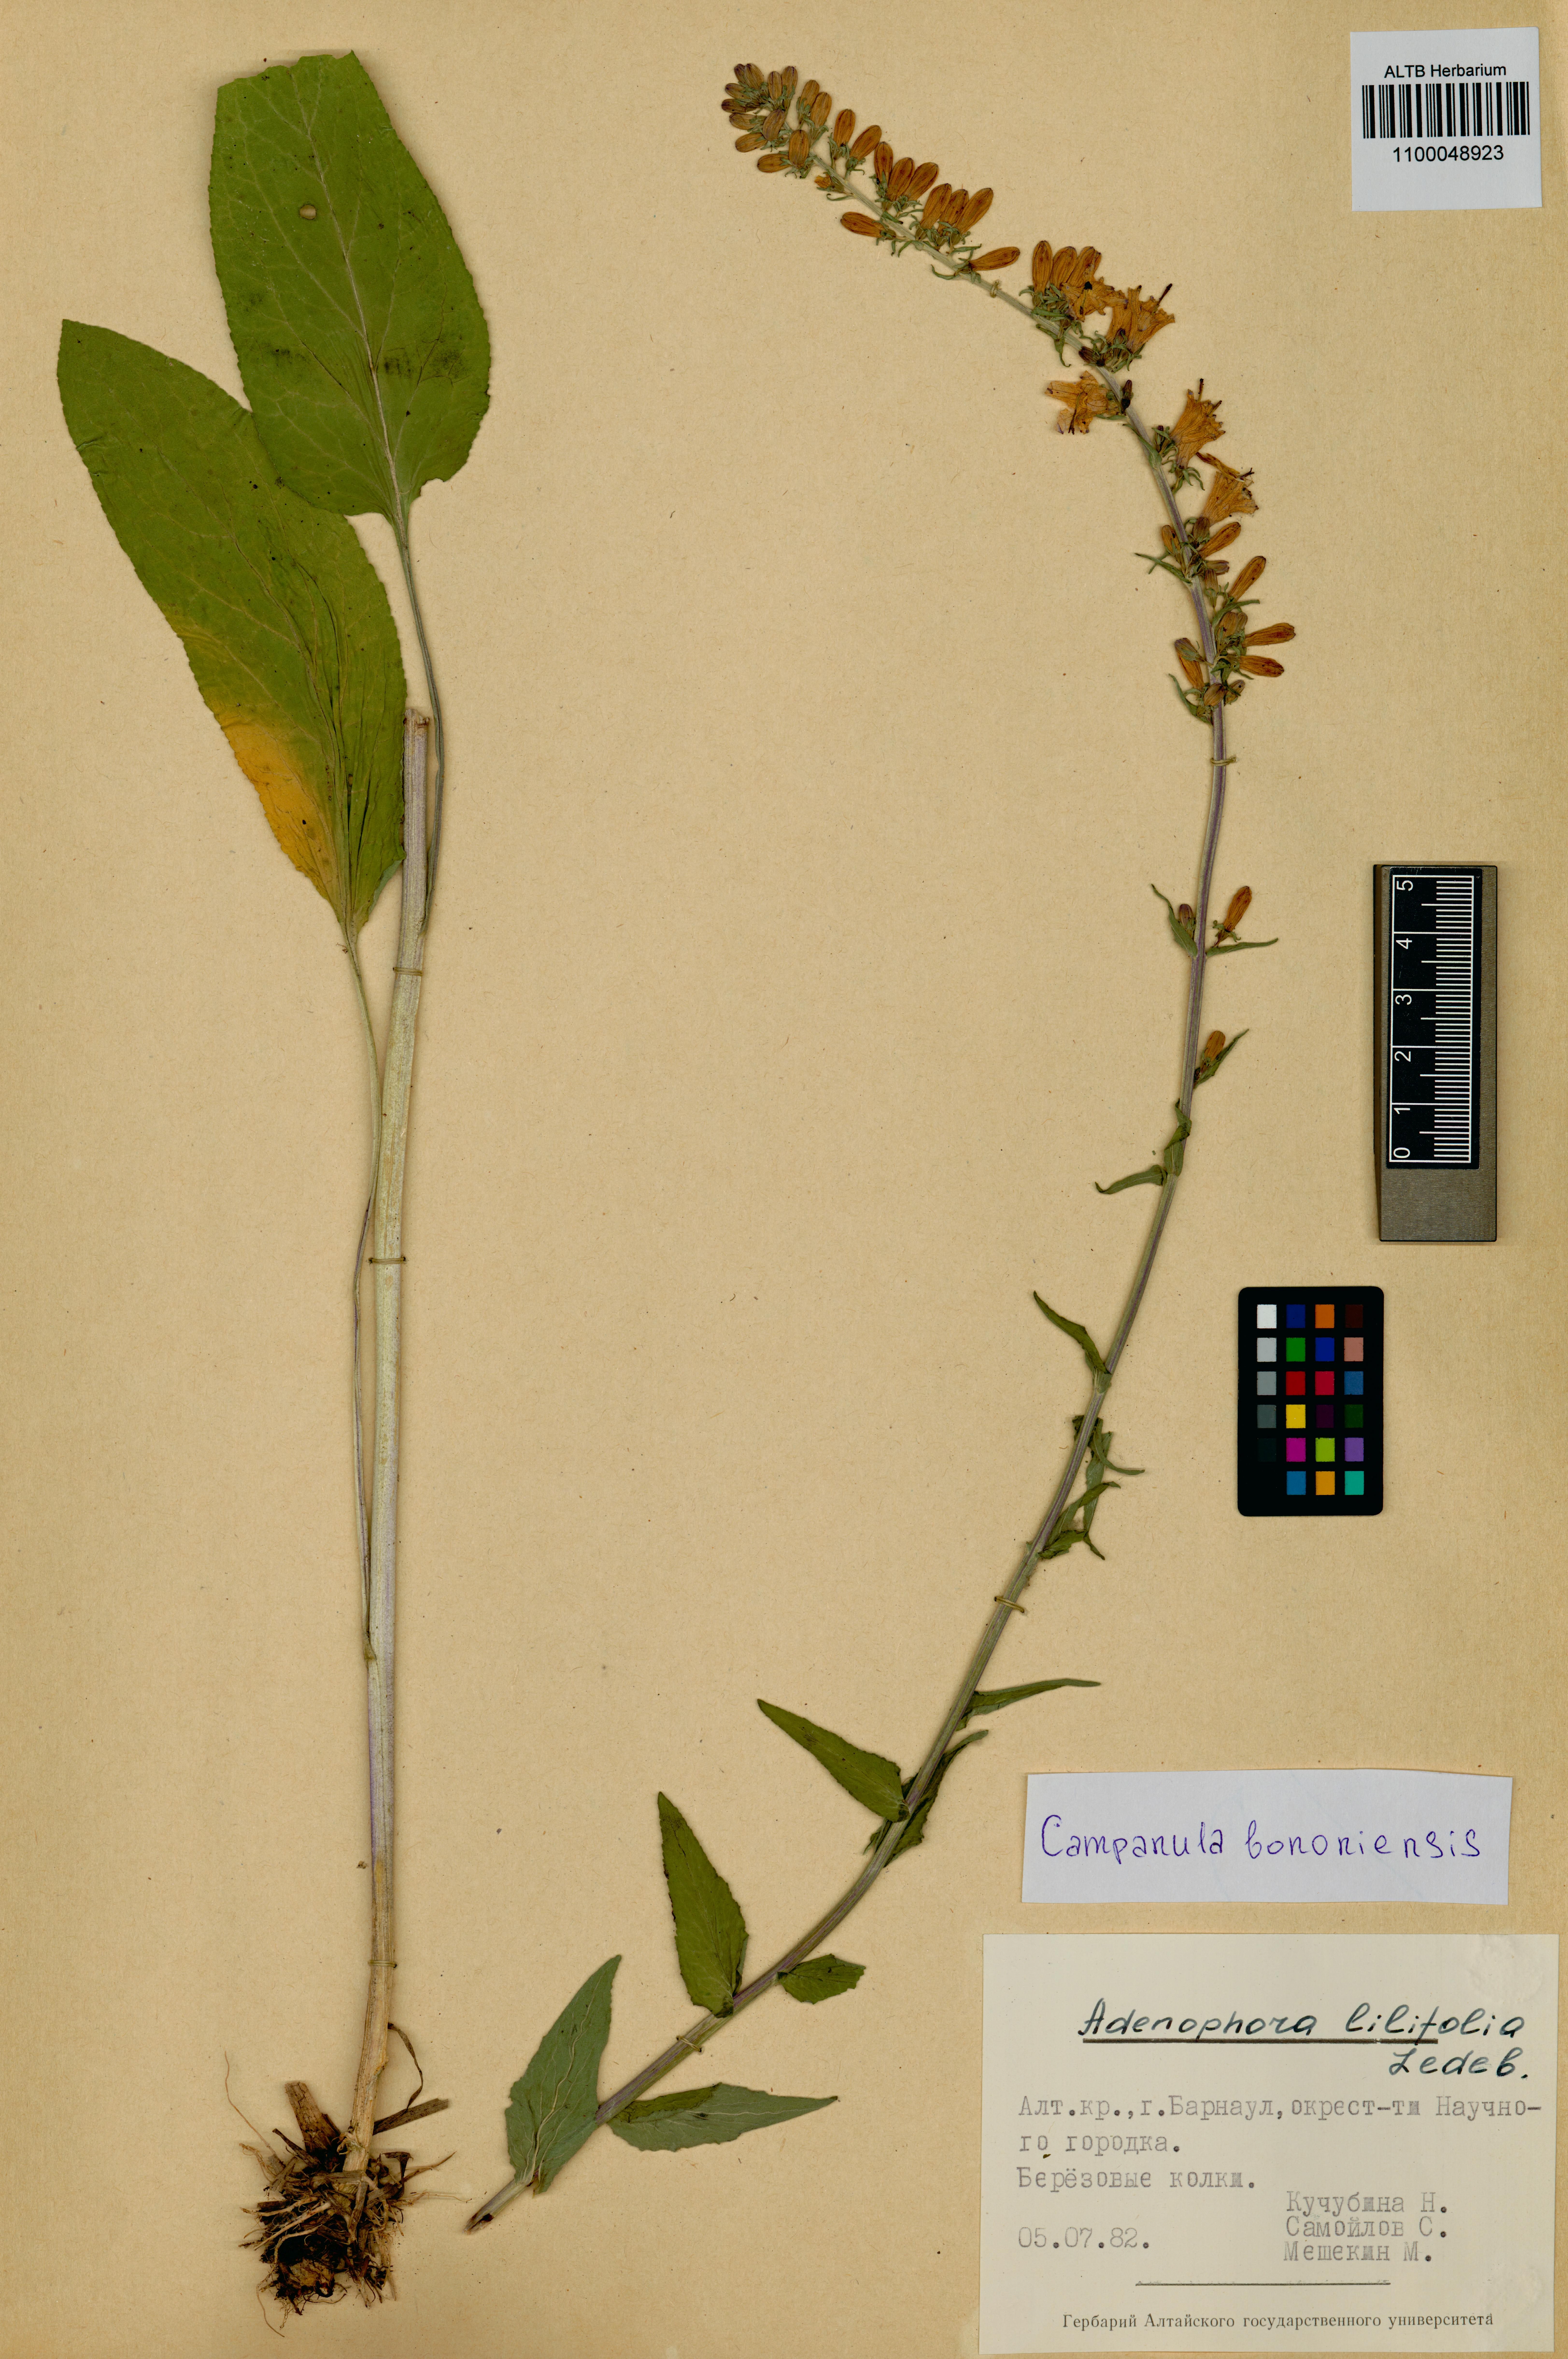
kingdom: Plantae
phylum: Tracheophyta
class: Magnoliopsida
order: Asterales
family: Campanulaceae
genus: Campanula
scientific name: Campanula bononiensis
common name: Pale bellflower
